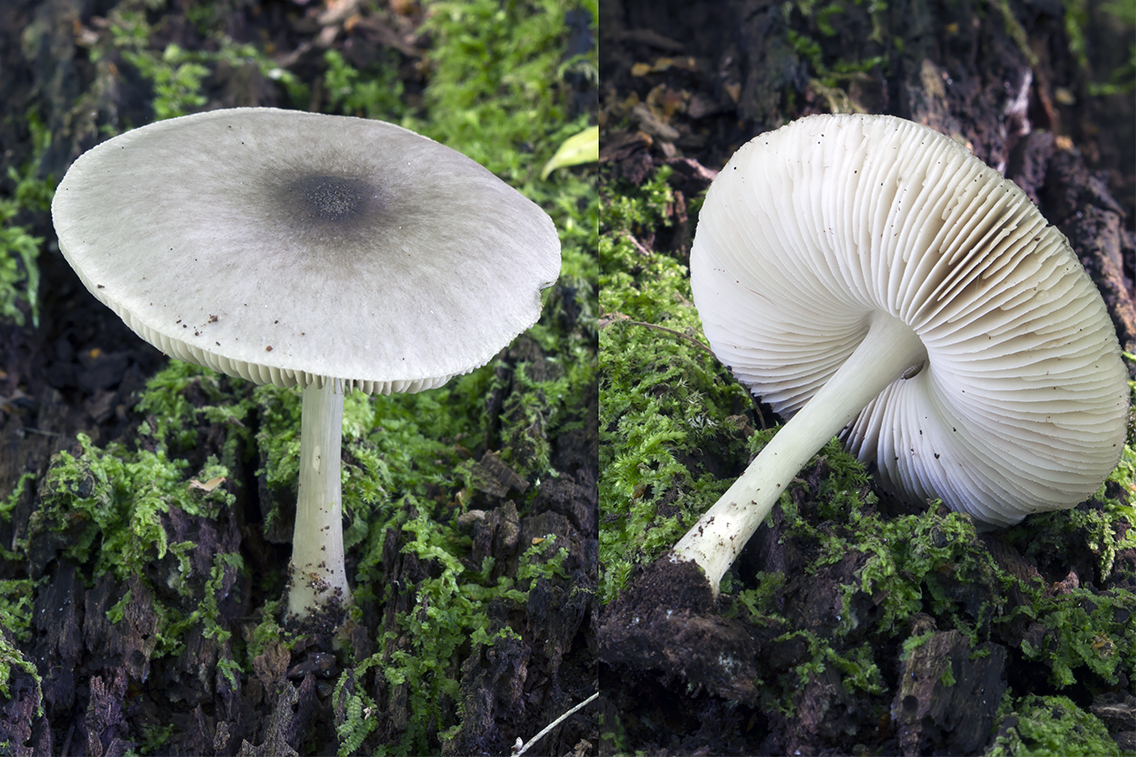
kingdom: Fungi
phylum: Basidiomycota
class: Agaricomycetes
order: Agaricales
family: Pluteaceae
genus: Pluteus
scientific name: Pluteus salicinus
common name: stiv skærmhat
